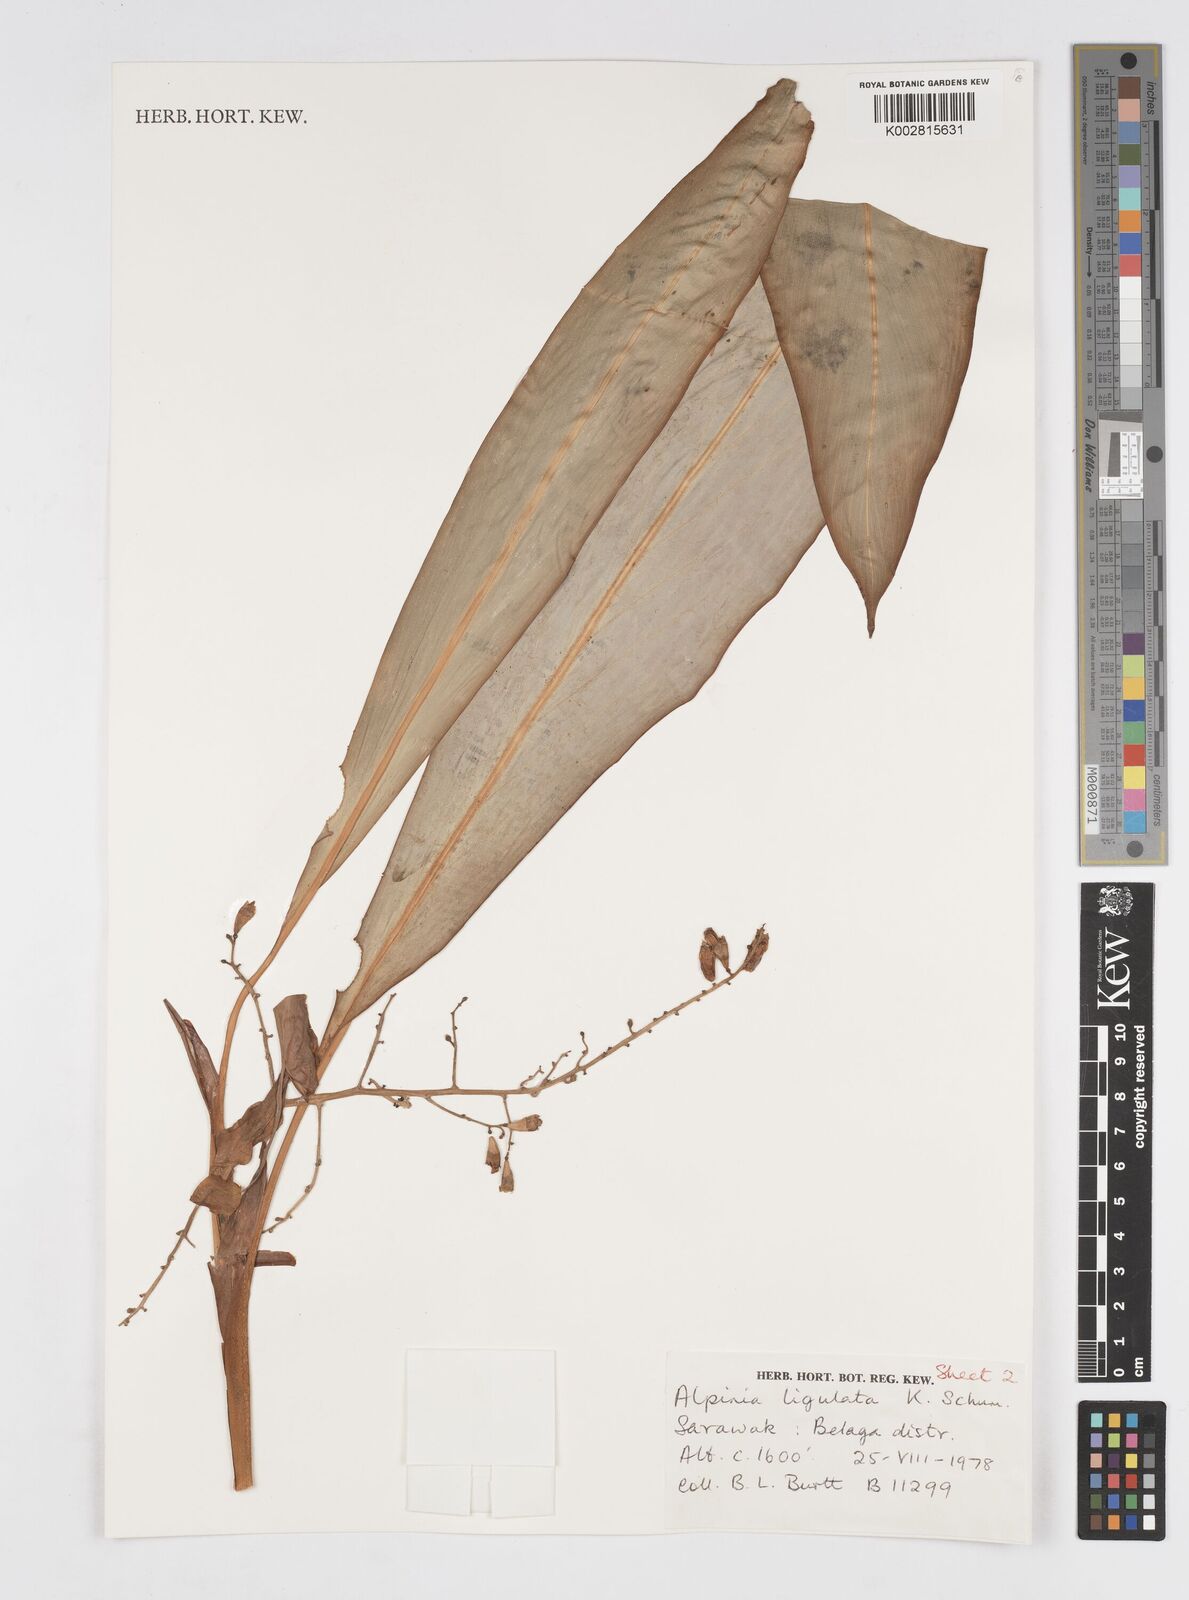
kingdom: Plantae
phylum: Tracheophyta
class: Liliopsida
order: Zingiberales
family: Zingiberaceae
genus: Alpinia
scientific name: Alpinia ligulata
